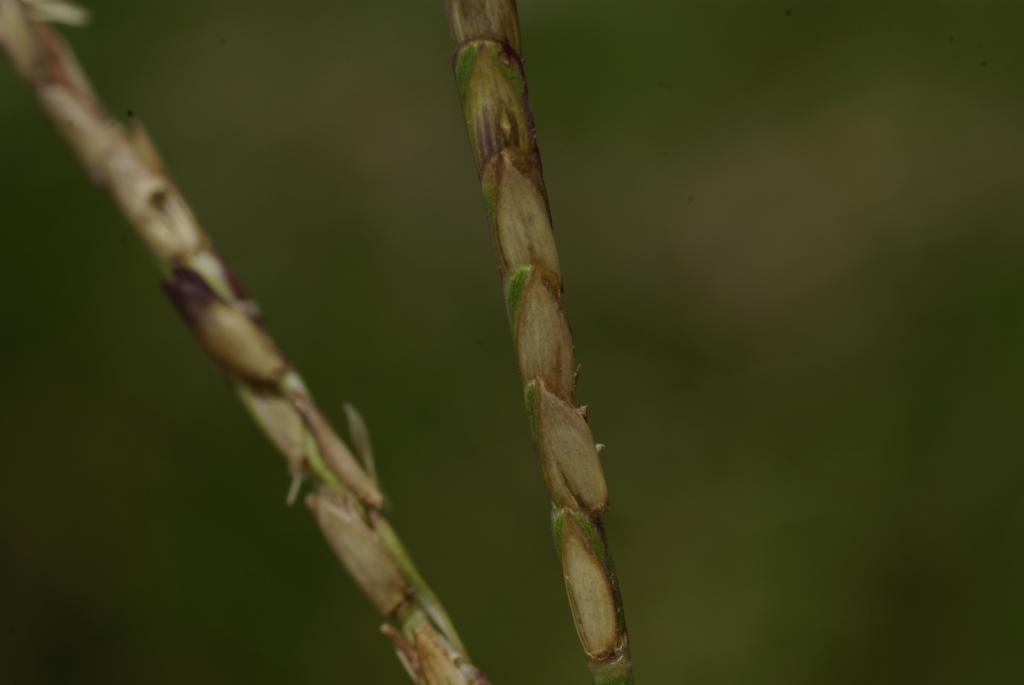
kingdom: Plantae
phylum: Tracheophyta
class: Liliopsida
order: Poales
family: Poaceae
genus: Eremochloa
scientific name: Eremochloa ophiuroides
